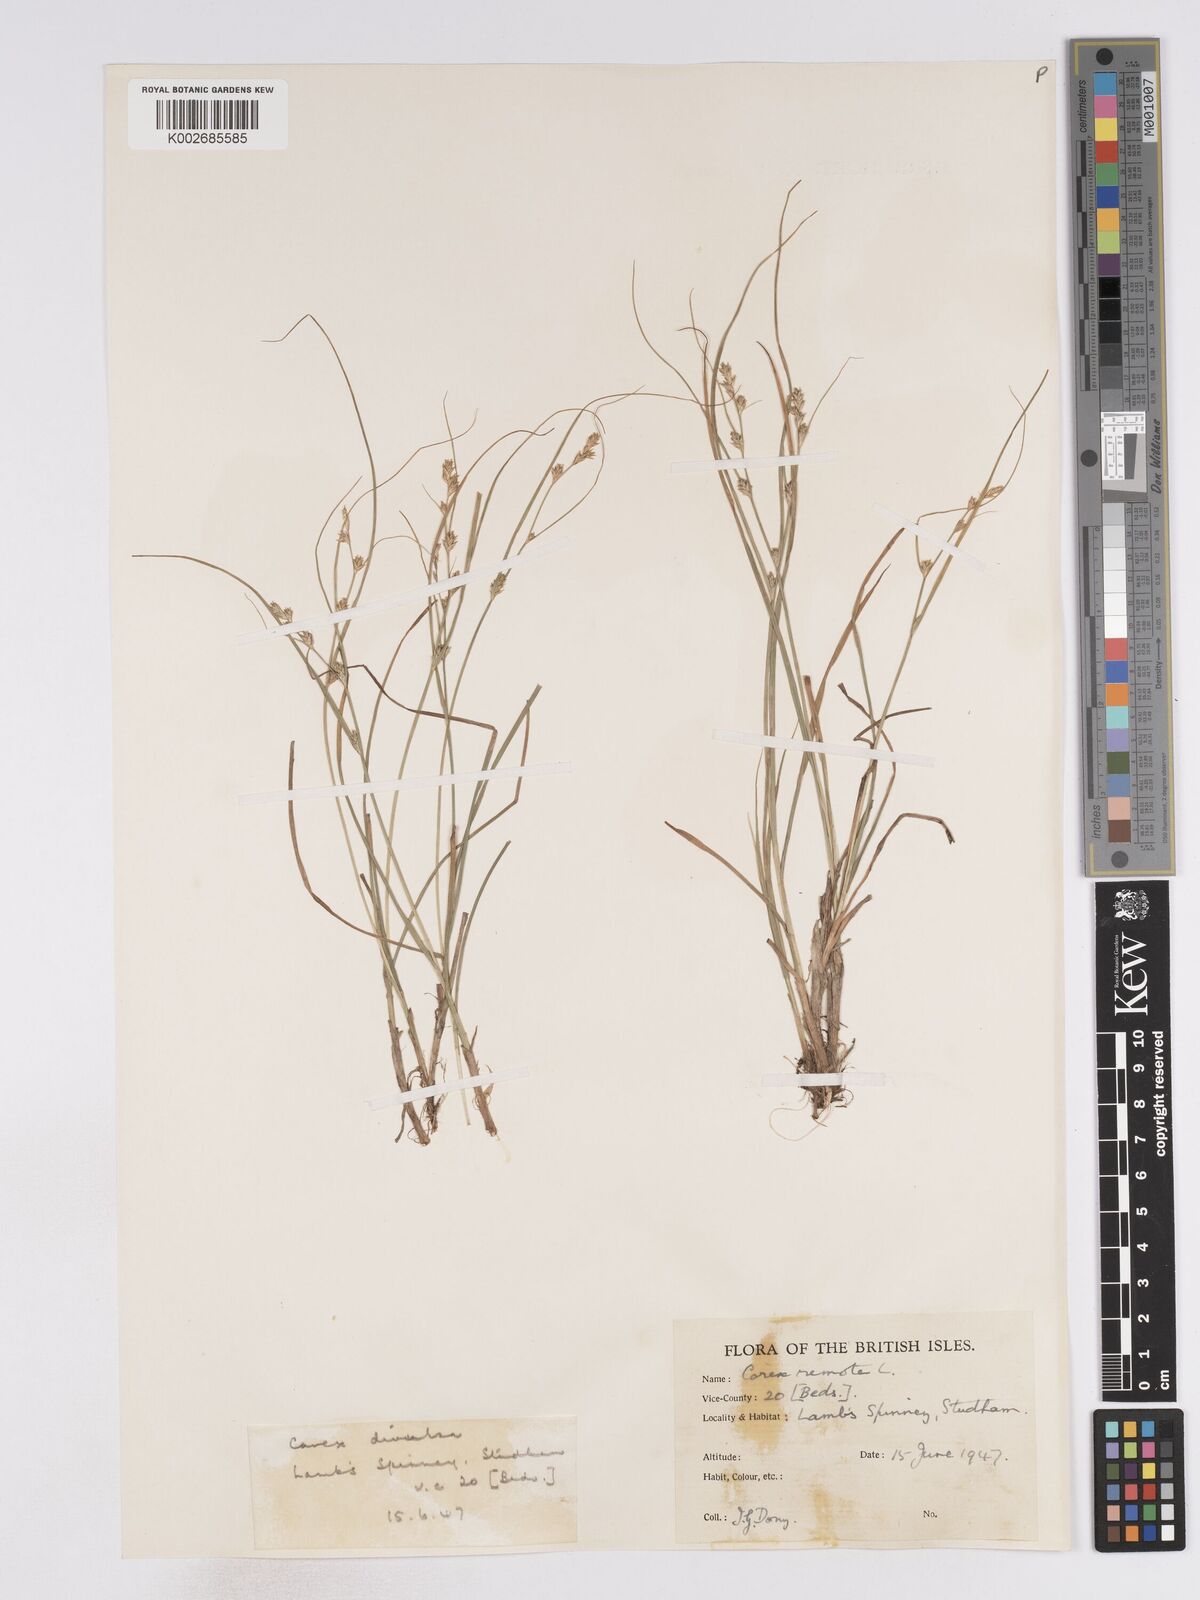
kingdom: Plantae
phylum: Tracheophyta
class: Liliopsida
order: Poales
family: Cyperaceae
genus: Carex
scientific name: Carex remota
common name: Remote sedge
